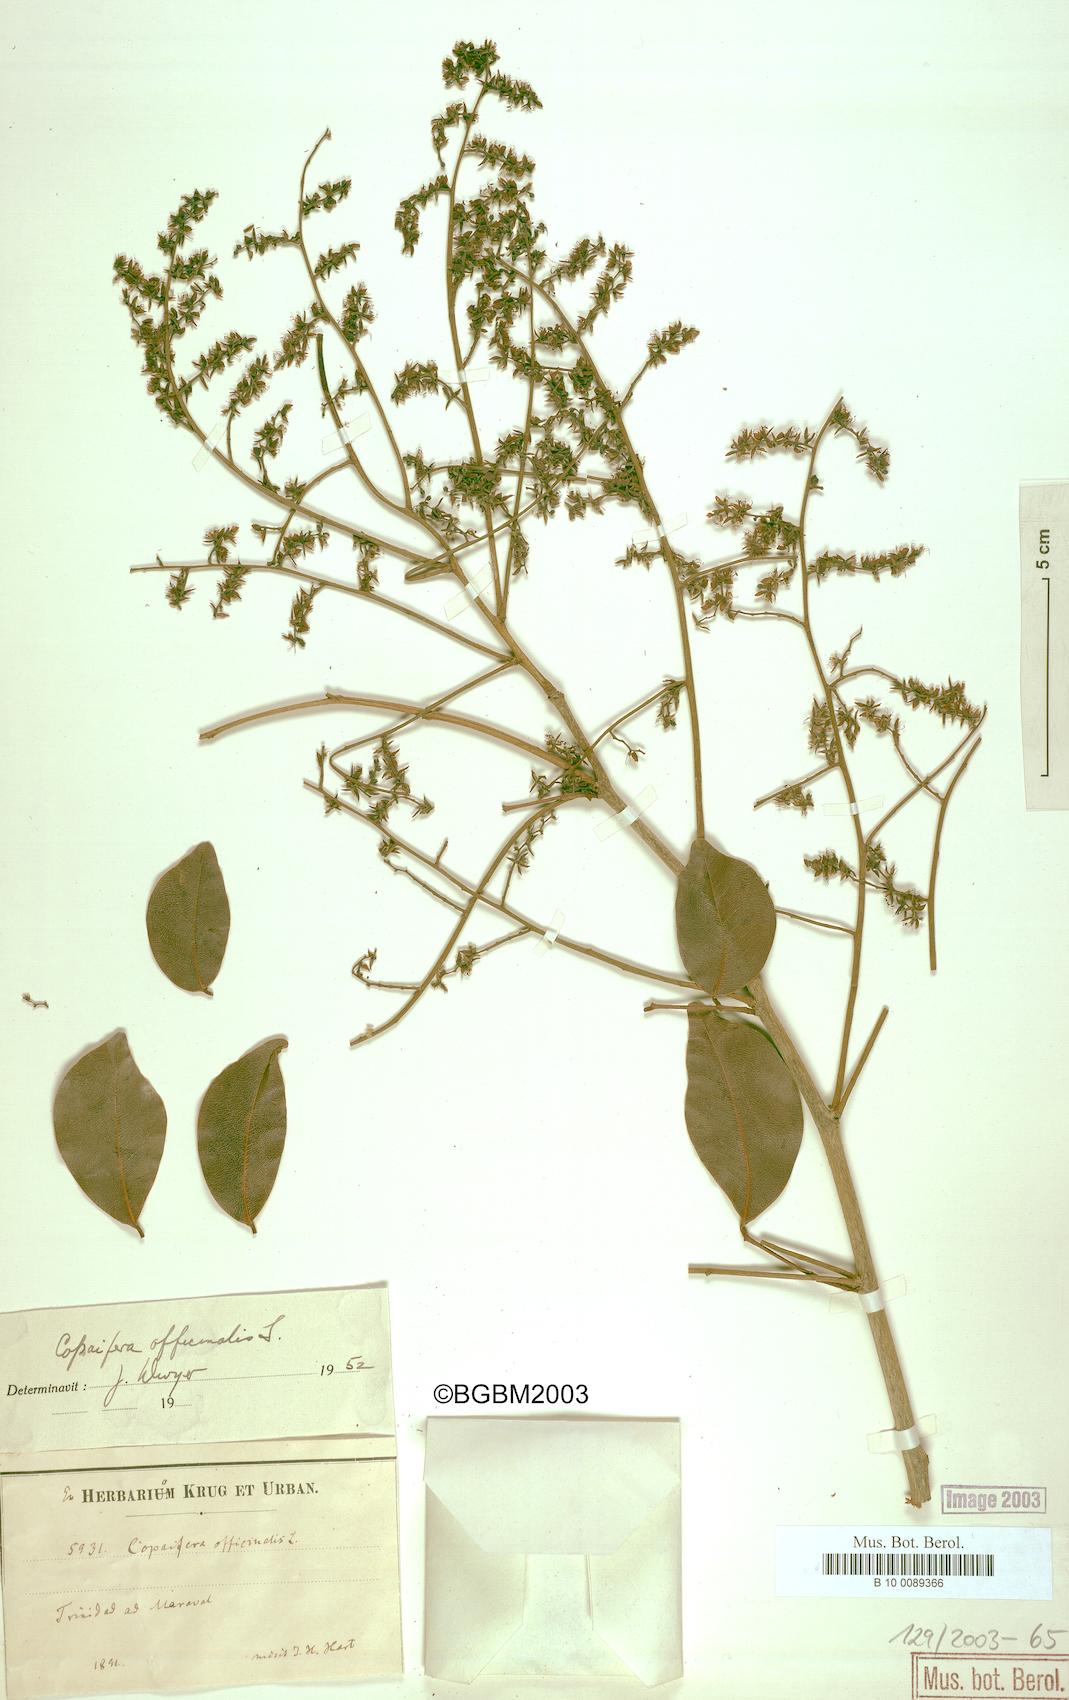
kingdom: Plantae
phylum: Tracheophyta
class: Magnoliopsida
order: Fabales
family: Fabaceae
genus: Copaifera
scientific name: Copaifera officinalis
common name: Copaiba
